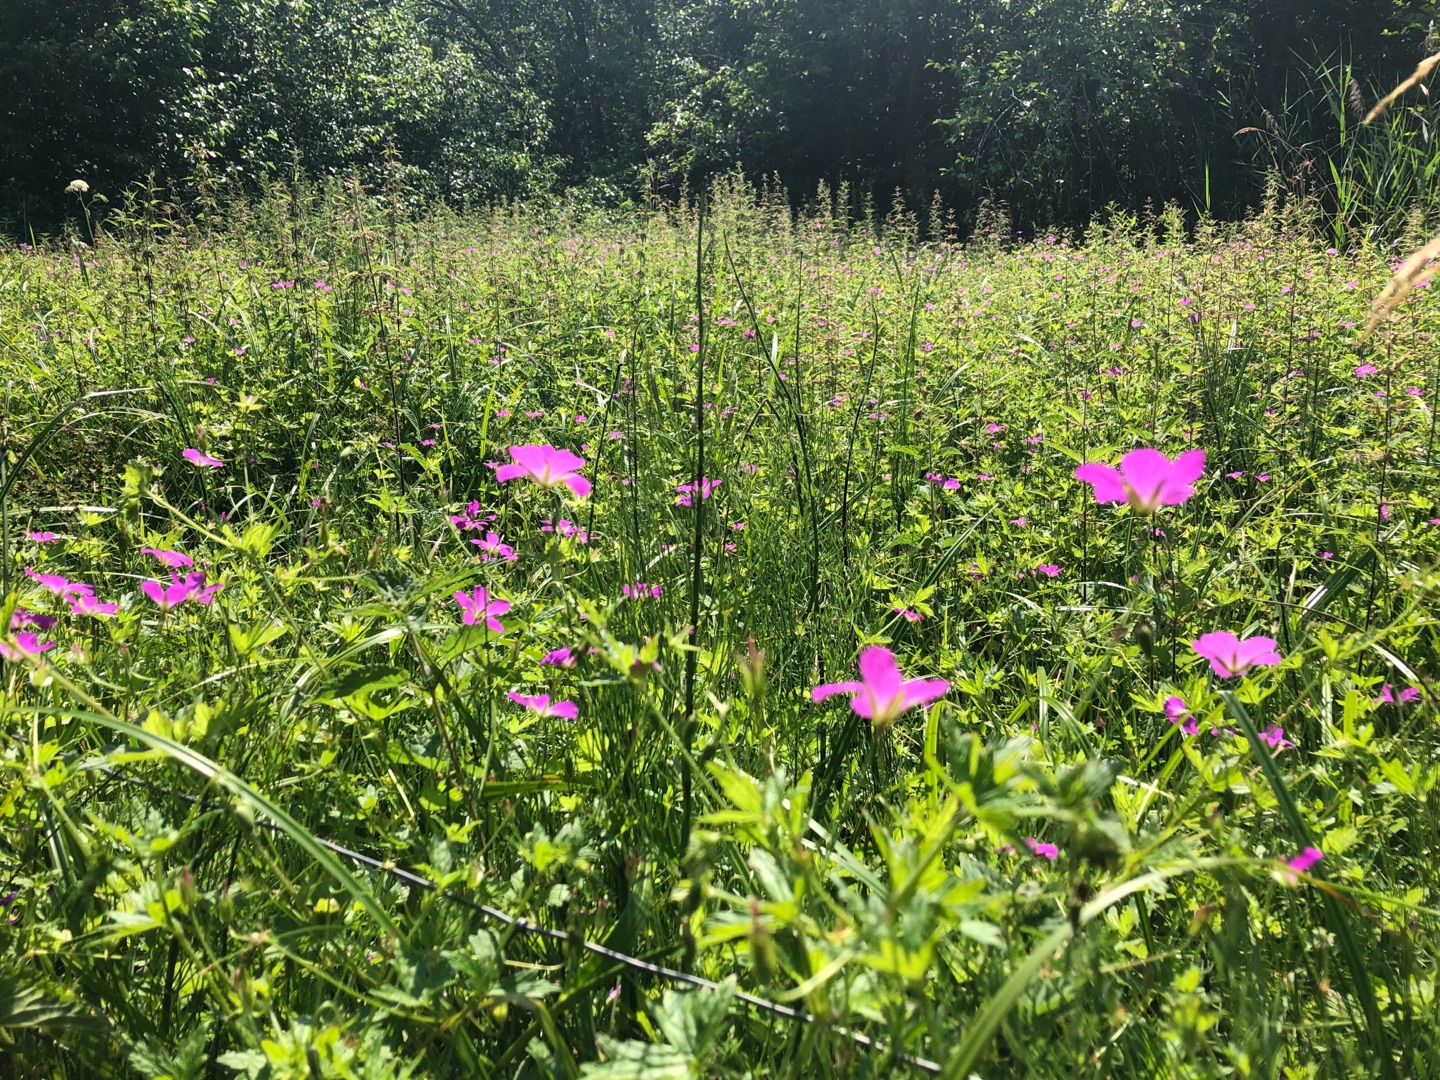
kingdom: Plantae
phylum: Tracheophyta
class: Magnoliopsida
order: Geraniales
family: Geraniaceae
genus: Geranium
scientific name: Geranium palustre
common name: Kær-storkenæb
